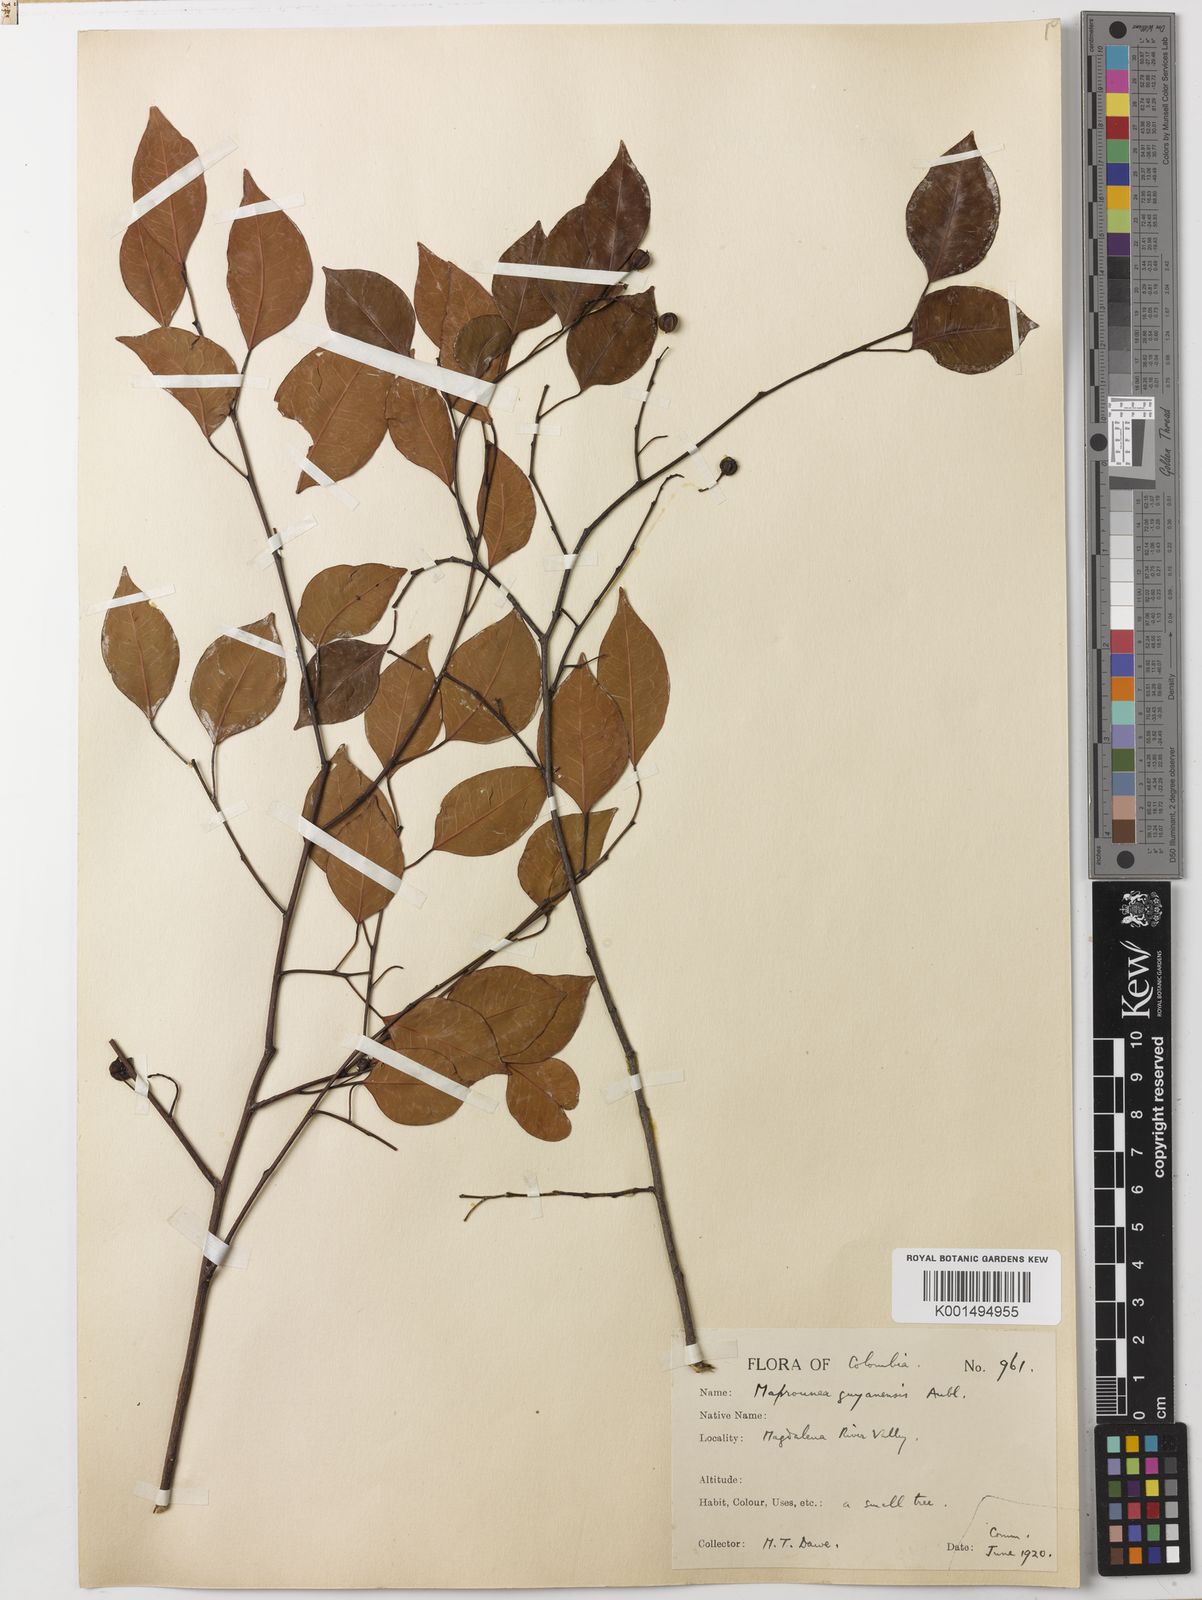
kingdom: Plantae
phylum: Tracheophyta
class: Magnoliopsida
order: Malpighiales
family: Euphorbiaceae
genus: Maprounea
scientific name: Maprounea guianensis
